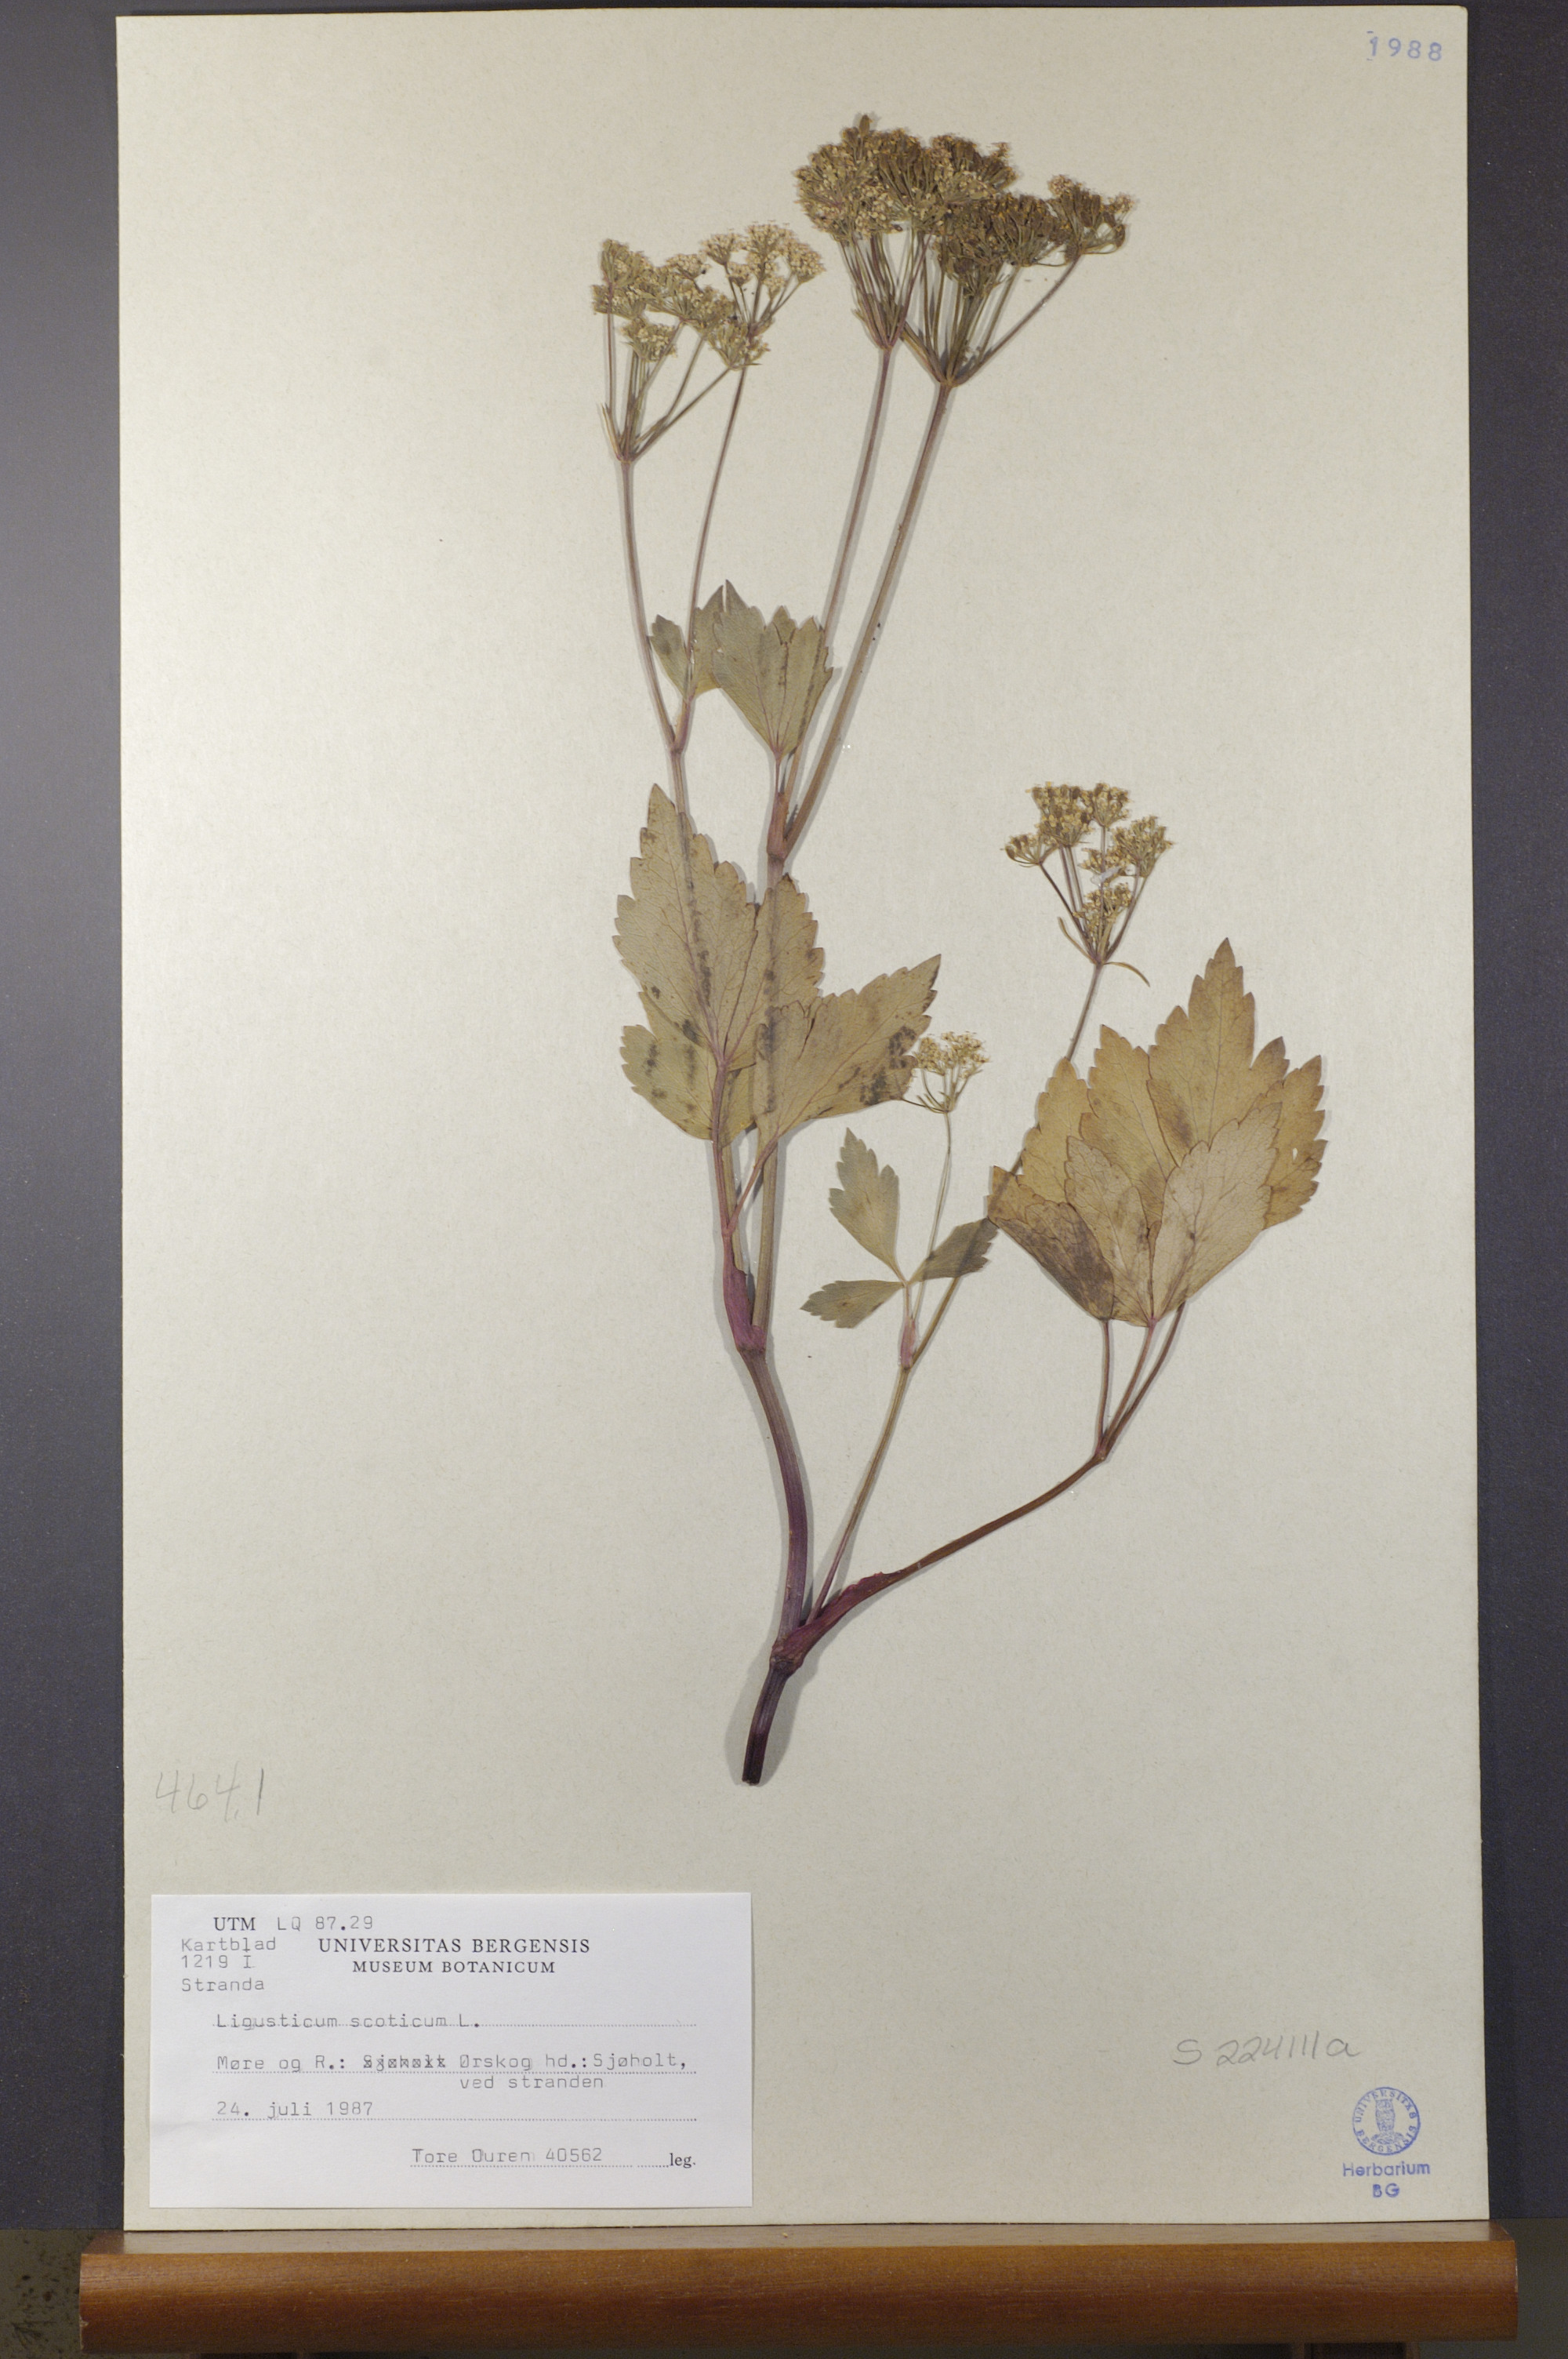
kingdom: Plantae
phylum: Tracheophyta
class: Magnoliopsida
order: Apiales
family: Apiaceae
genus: Ligusticum
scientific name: Ligusticum scothicum
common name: Beach lovage
